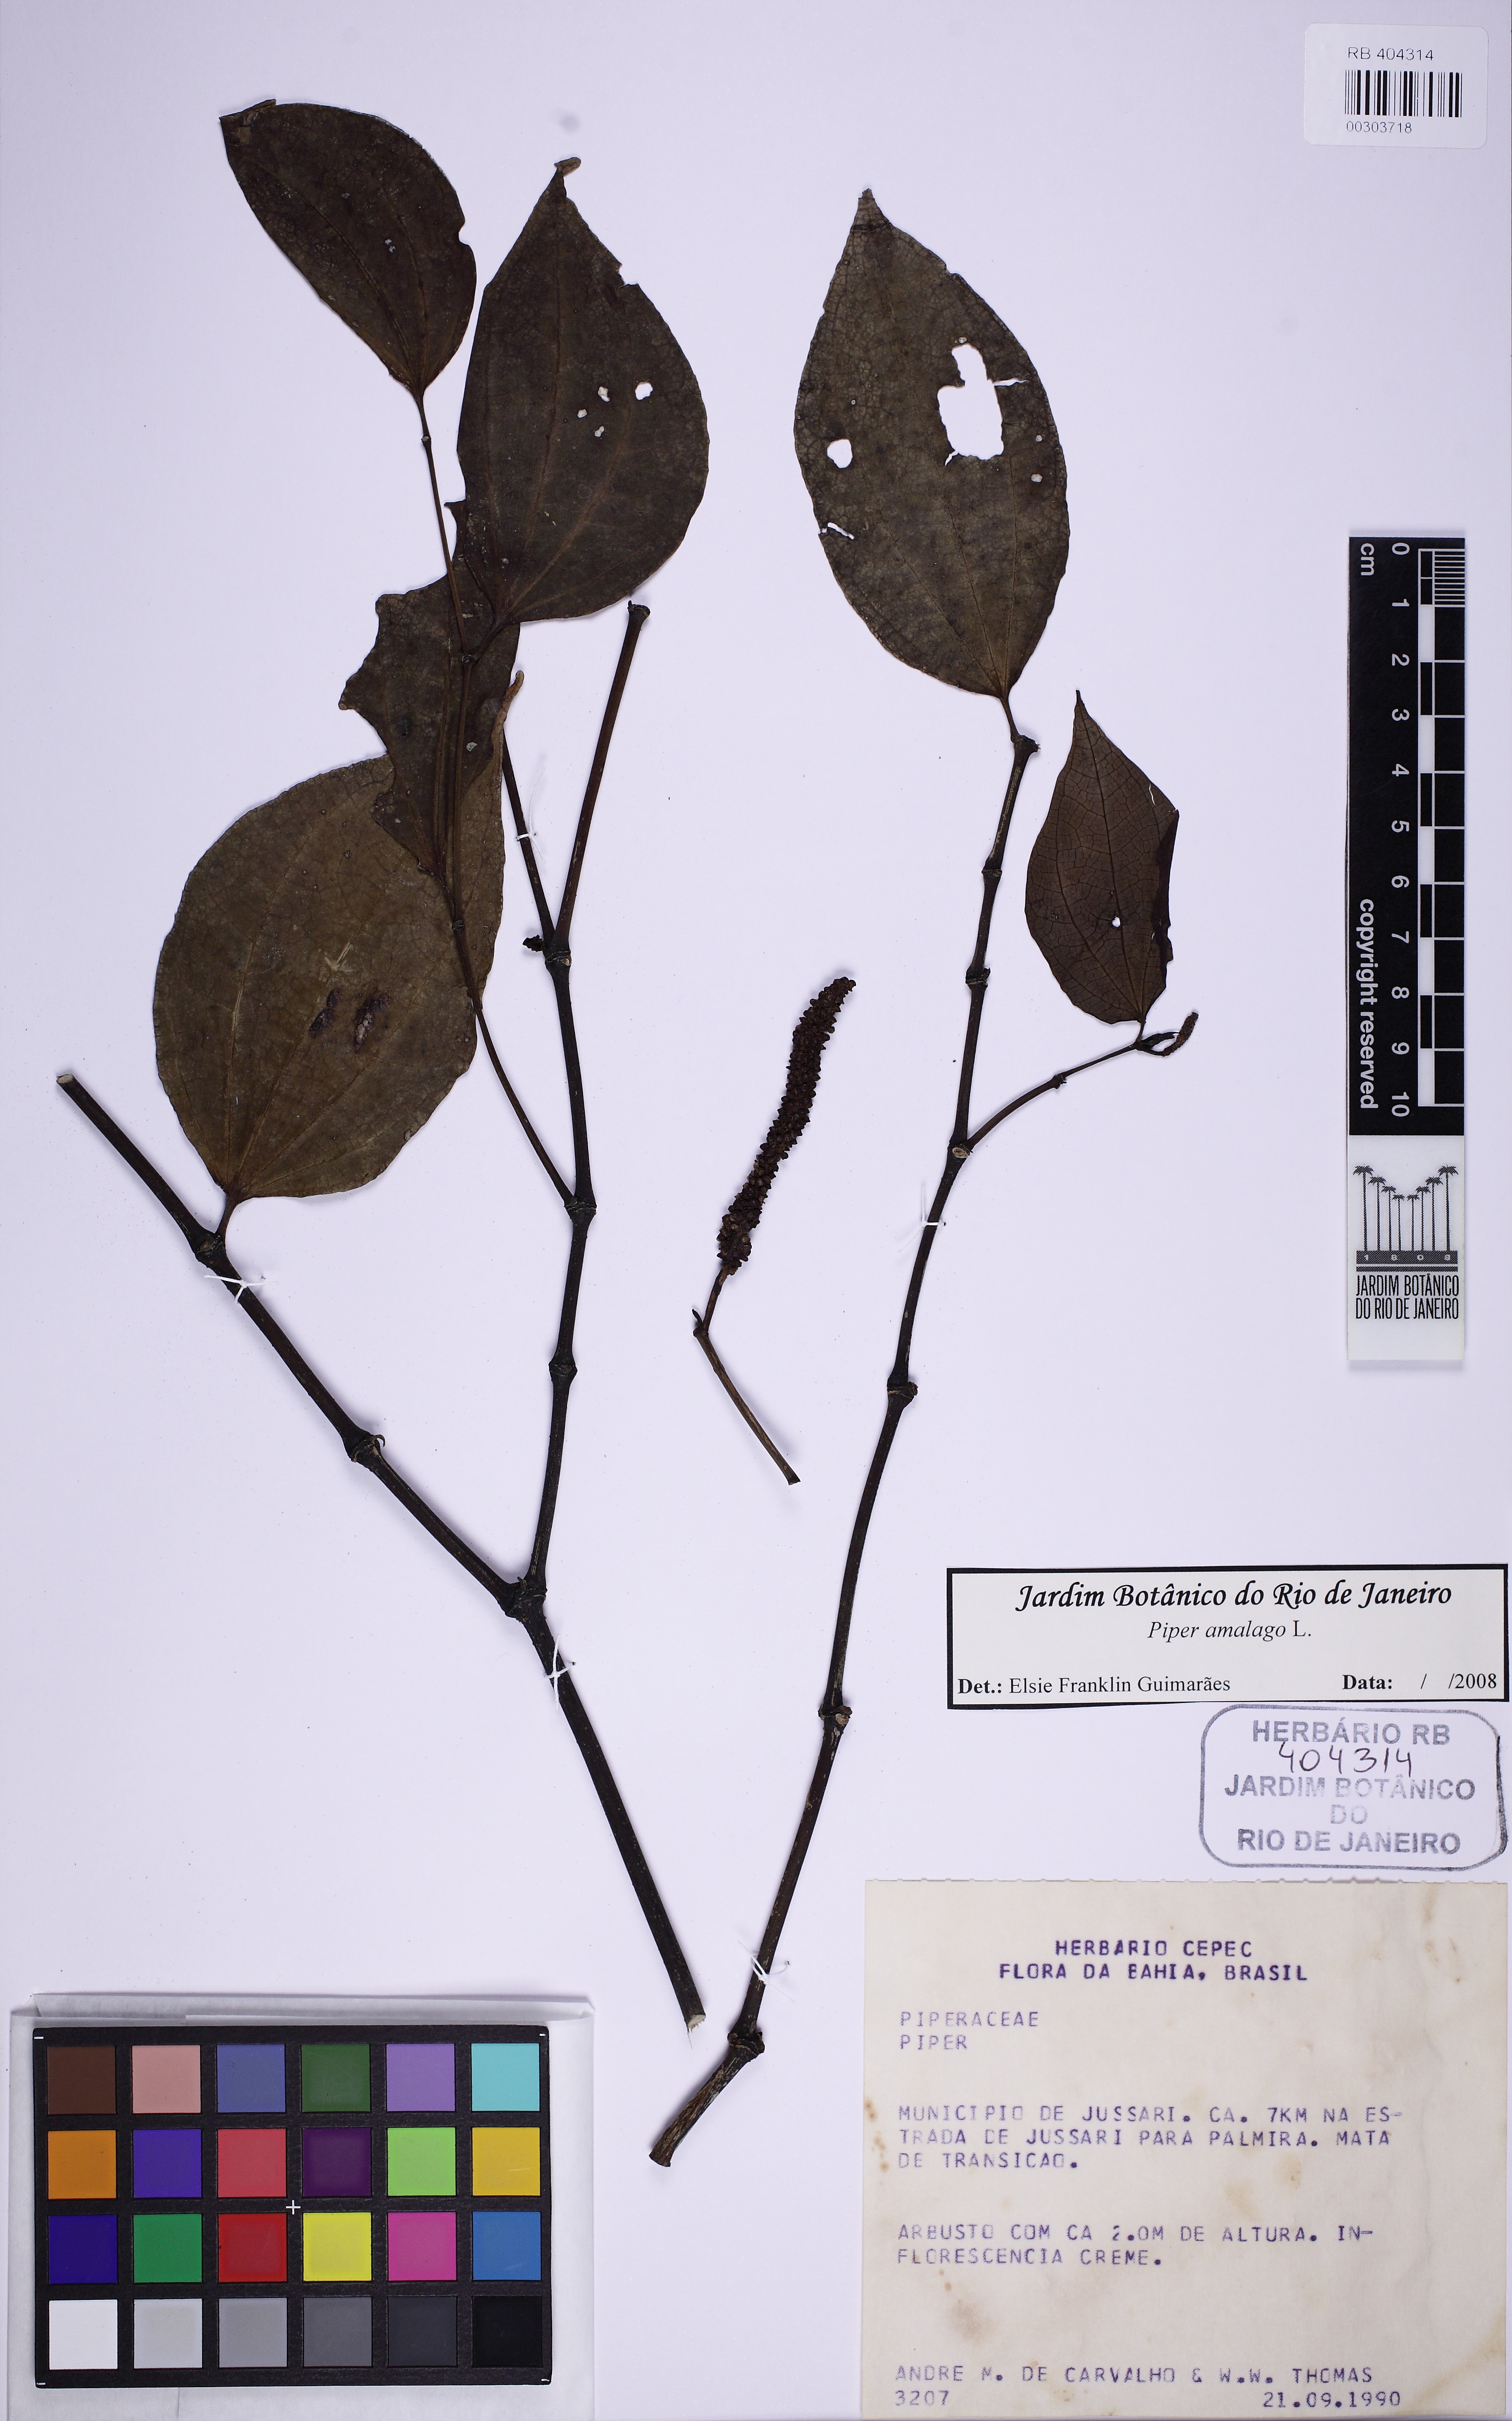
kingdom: Plantae
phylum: Tracheophyta
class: Magnoliopsida
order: Piperales
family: Piperaceae
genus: Piper
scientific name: Piper amalago
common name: Pepper-elder
